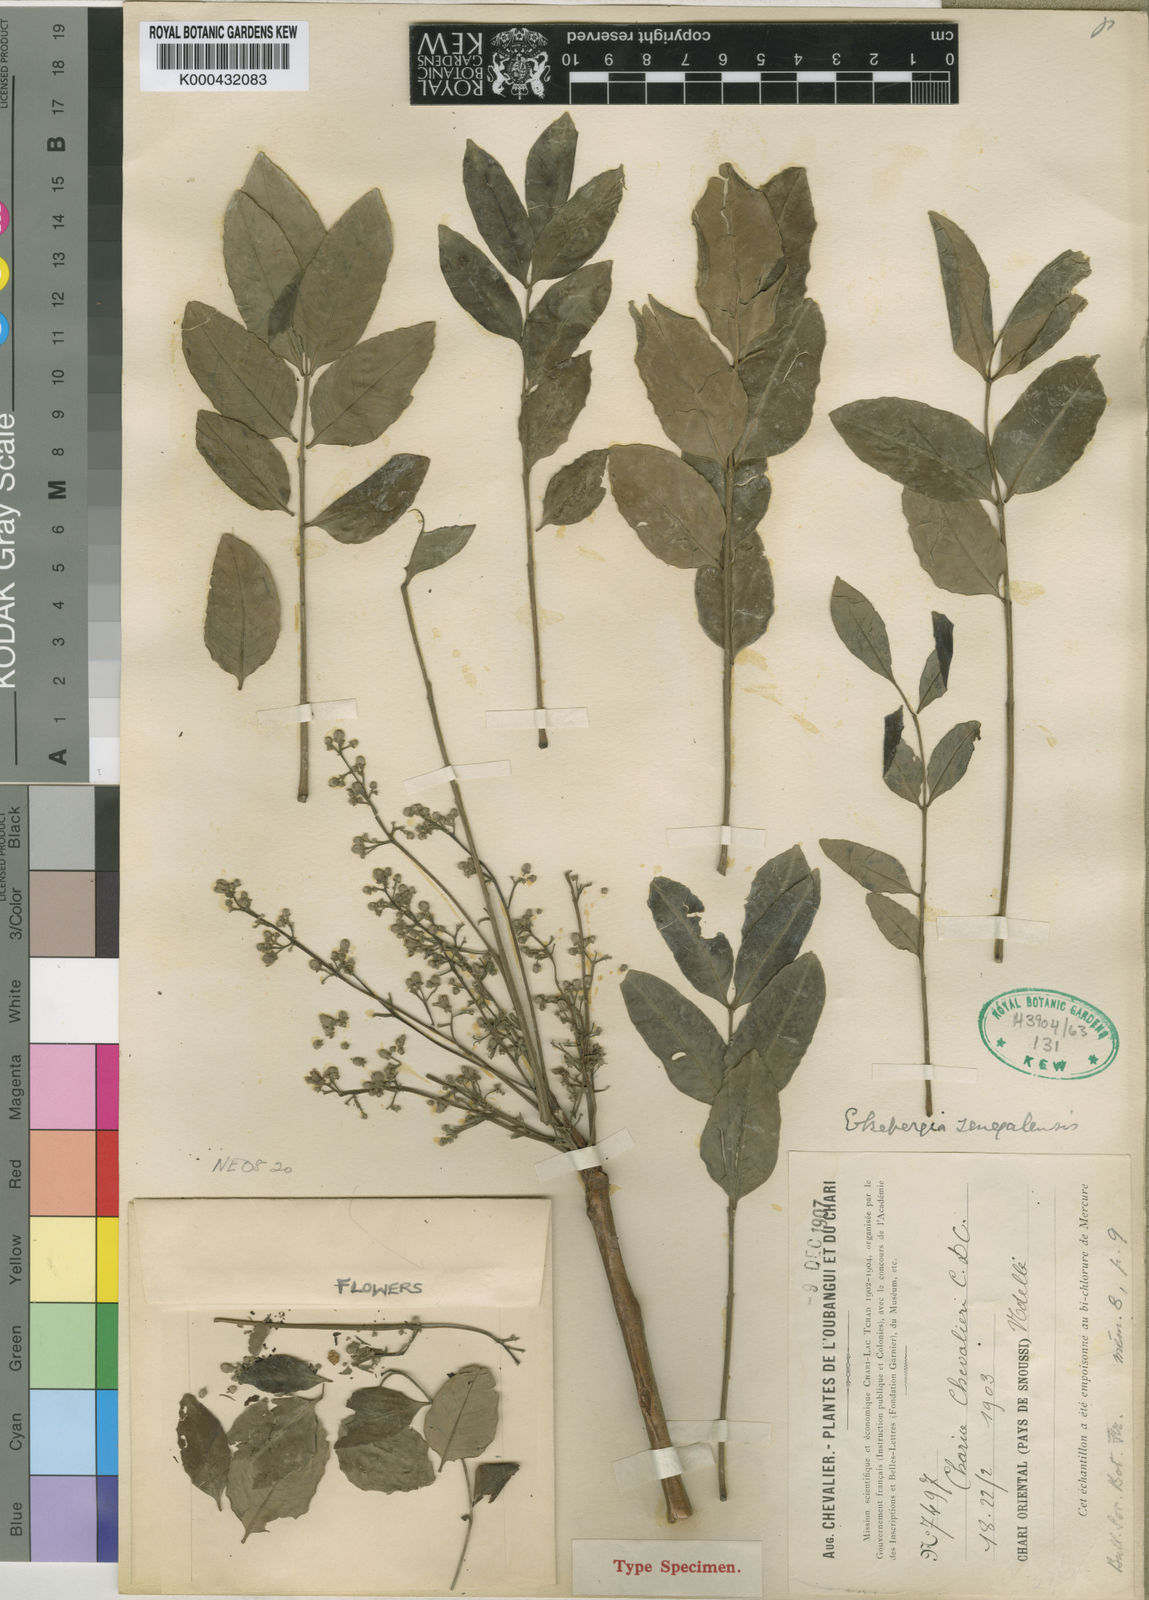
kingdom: Plantae
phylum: Tracheophyta
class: Magnoliopsida
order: Sapindales
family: Meliaceae
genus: Ekebergia
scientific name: Ekebergia capensis
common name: Cape-ash
